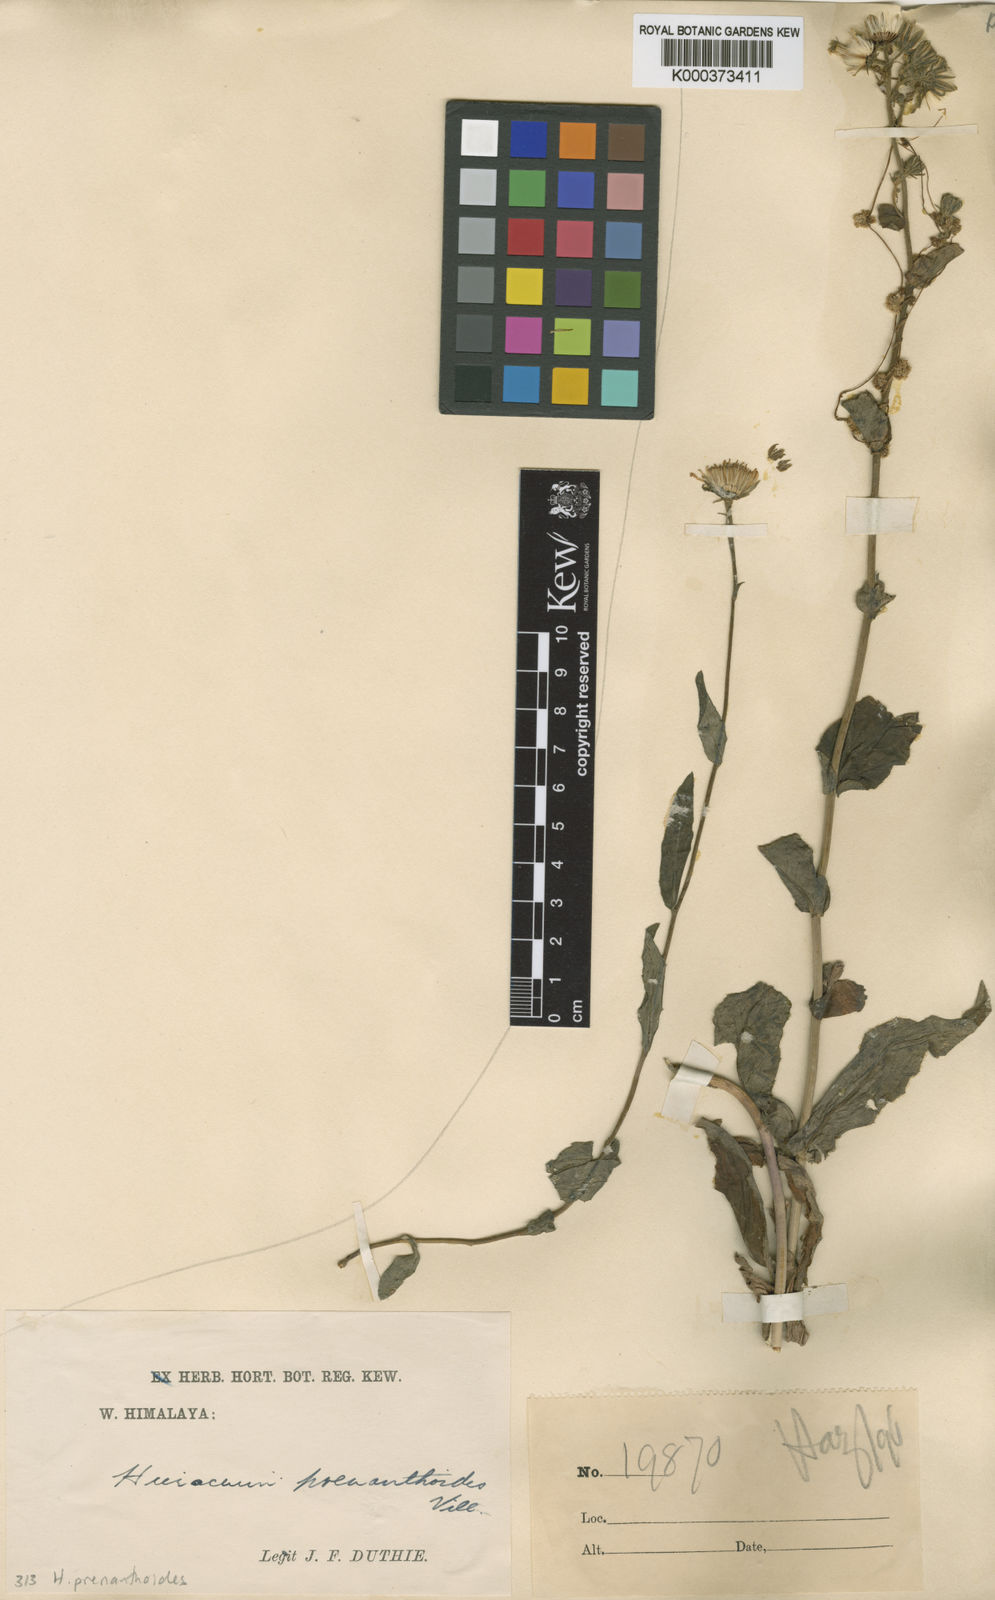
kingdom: Plantae
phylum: Tracheophyta
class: Magnoliopsida
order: Asterales
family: Asteraceae
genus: Hieracium
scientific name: Hieracium prenanthoides
